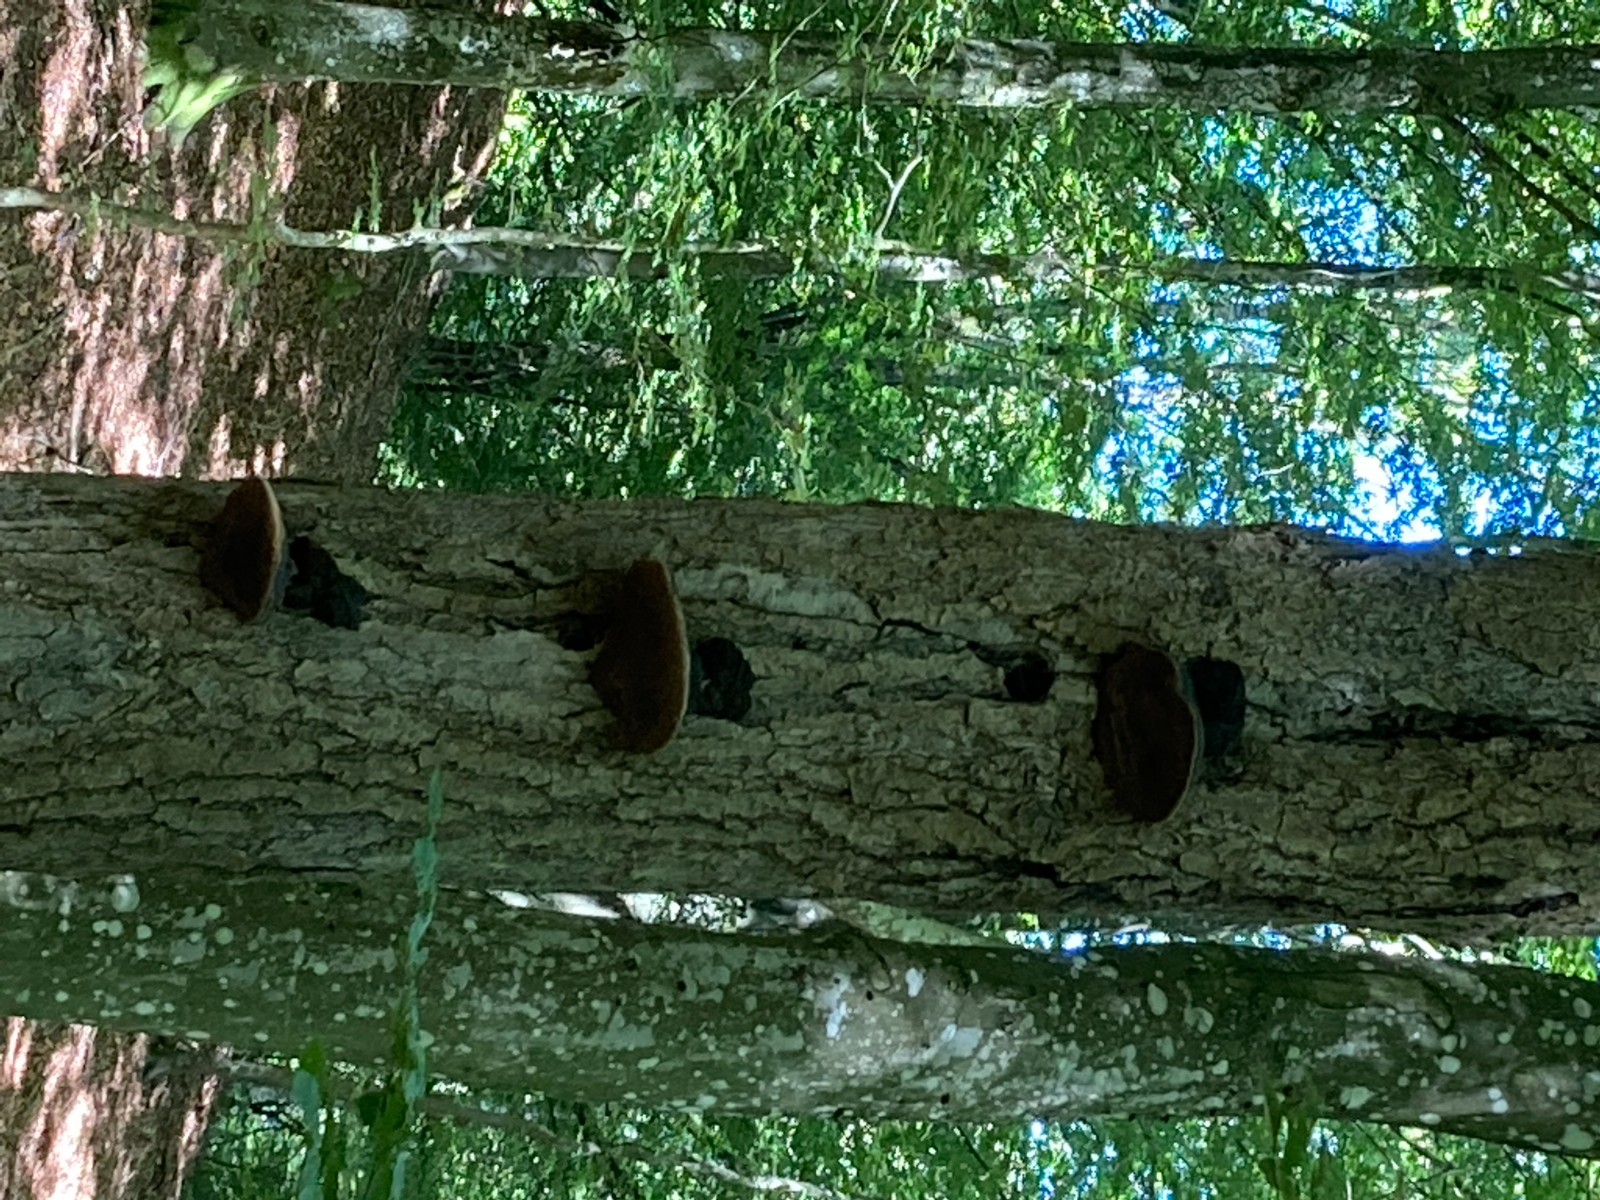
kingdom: Fungi
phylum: Basidiomycota
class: Agaricomycetes
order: Hymenochaetales
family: Hymenochaetaceae
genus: Phellinus
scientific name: Phellinus populicola
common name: poppel-ildporesvamp
